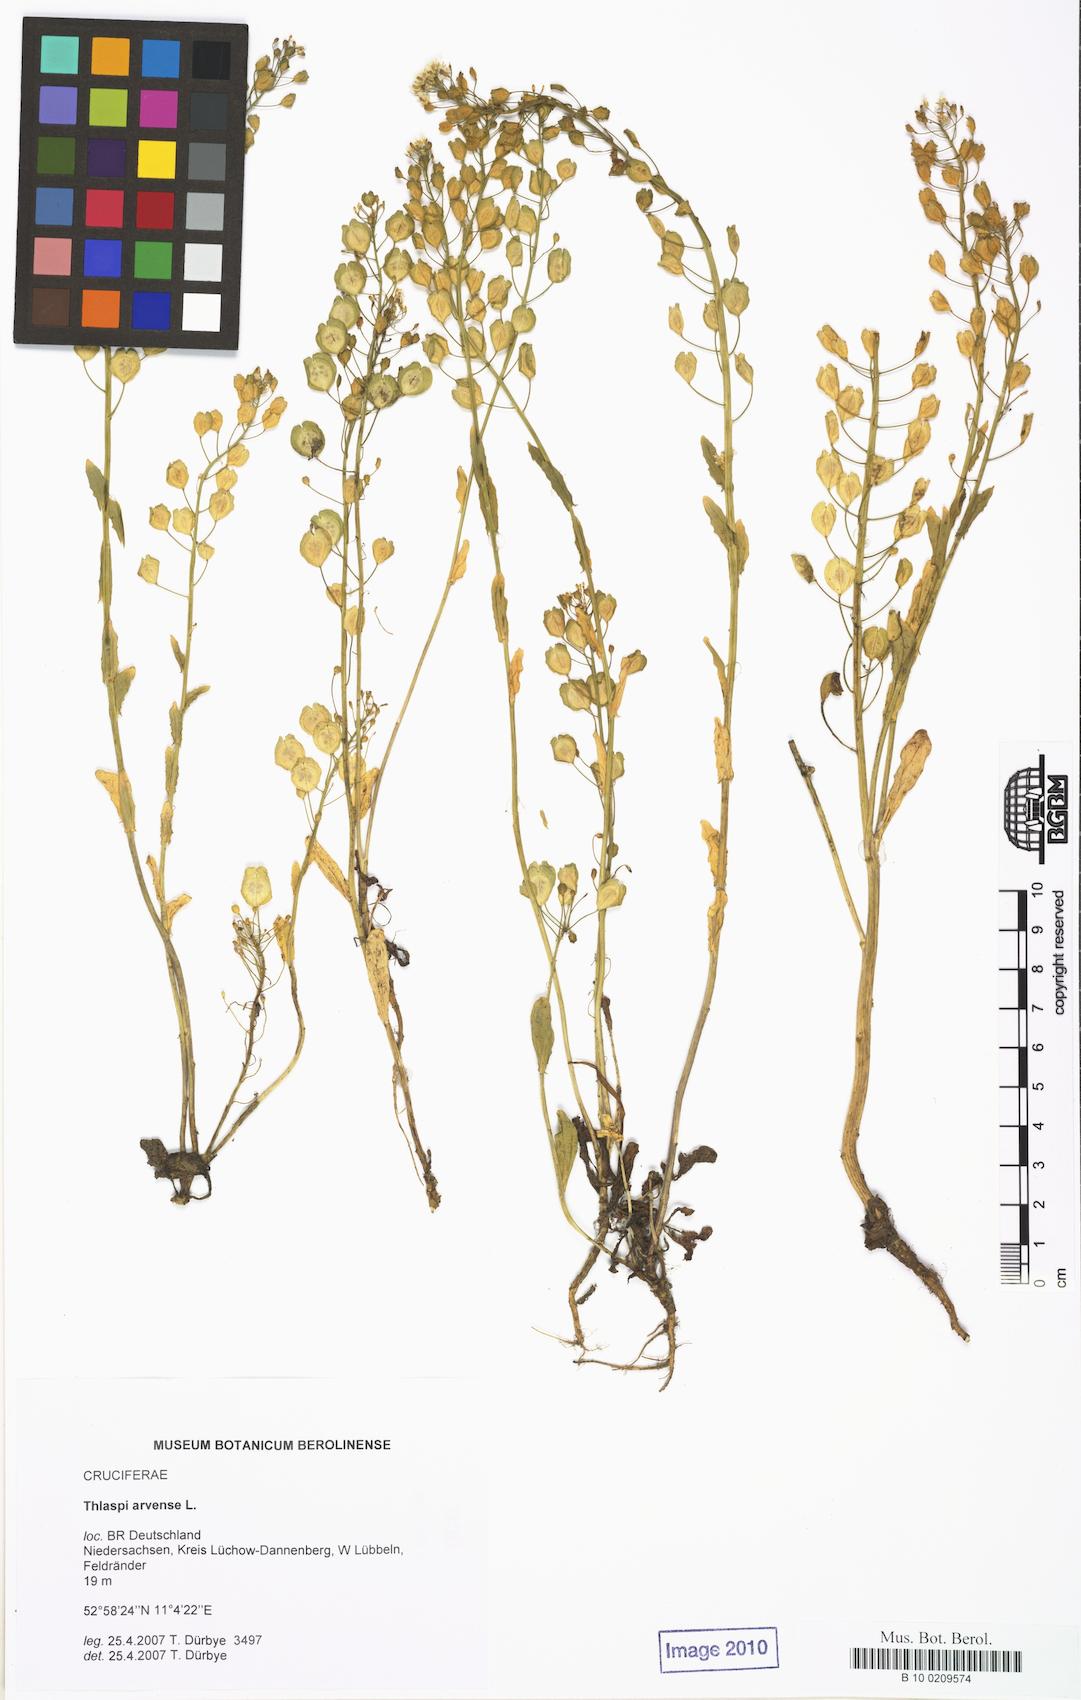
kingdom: Plantae
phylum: Tracheophyta
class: Magnoliopsida
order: Brassicales
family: Brassicaceae
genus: Thlaspi
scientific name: Thlaspi arvense
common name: Field pennycress
